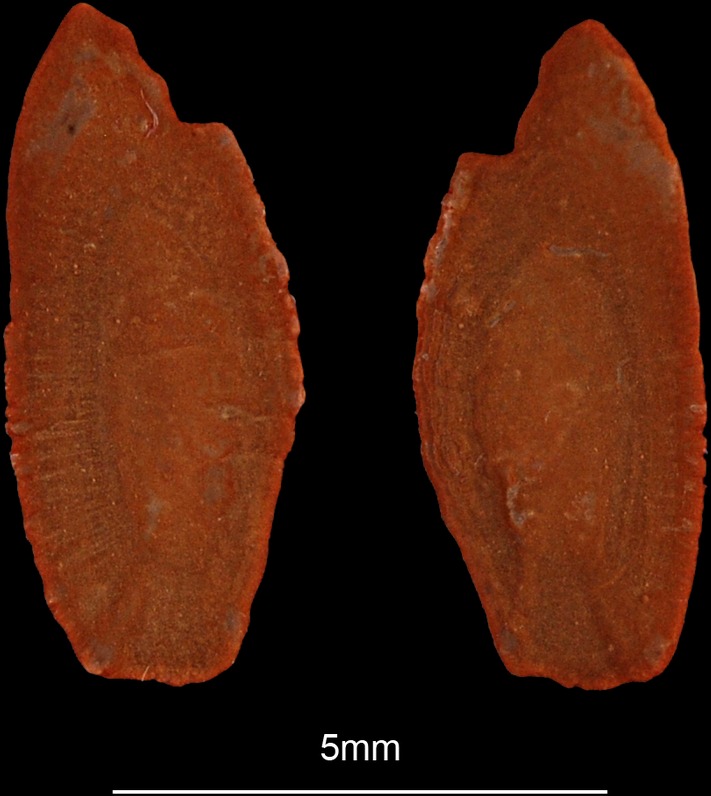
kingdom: Animalia
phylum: Chordata
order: Perciformes
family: Trichiuridae
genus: Lepidopus
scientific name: Lepidopus caudatus
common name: Silver scabbardfish
